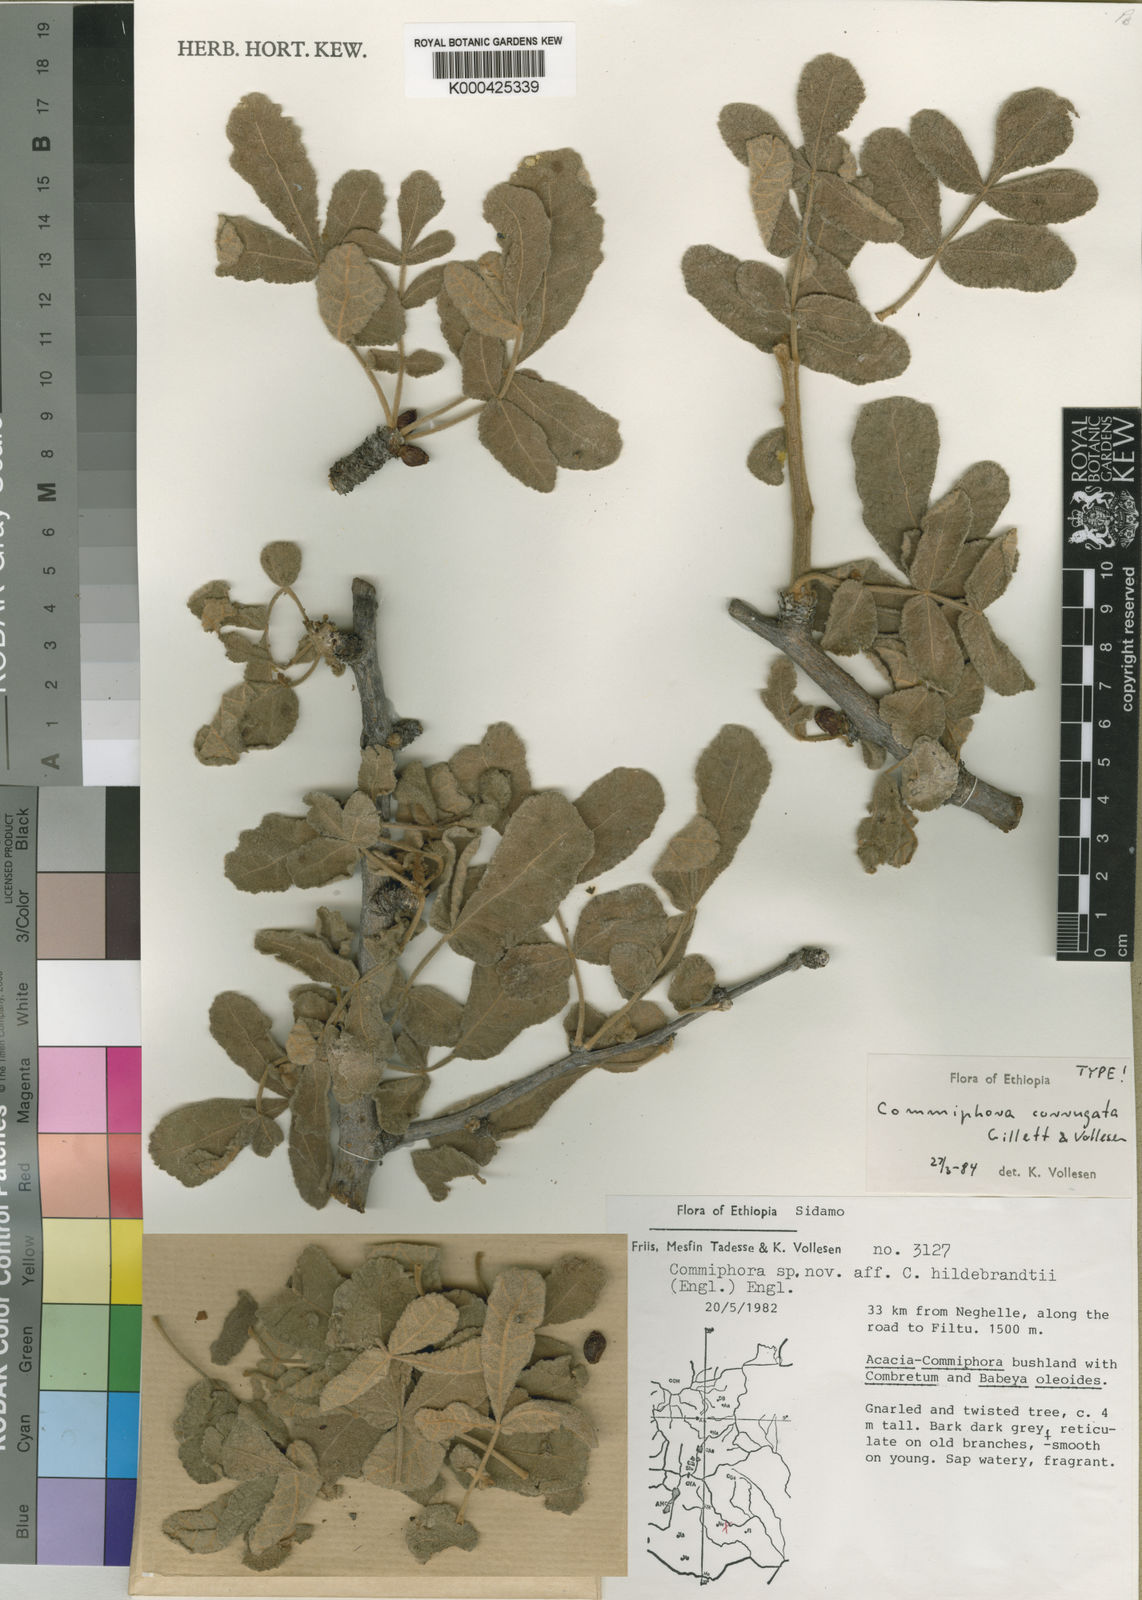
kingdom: Plantae
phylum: Tracheophyta
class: Magnoliopsida
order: Sapindales
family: Burseraceae
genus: Commiphora
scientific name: Commiphora corrugata
